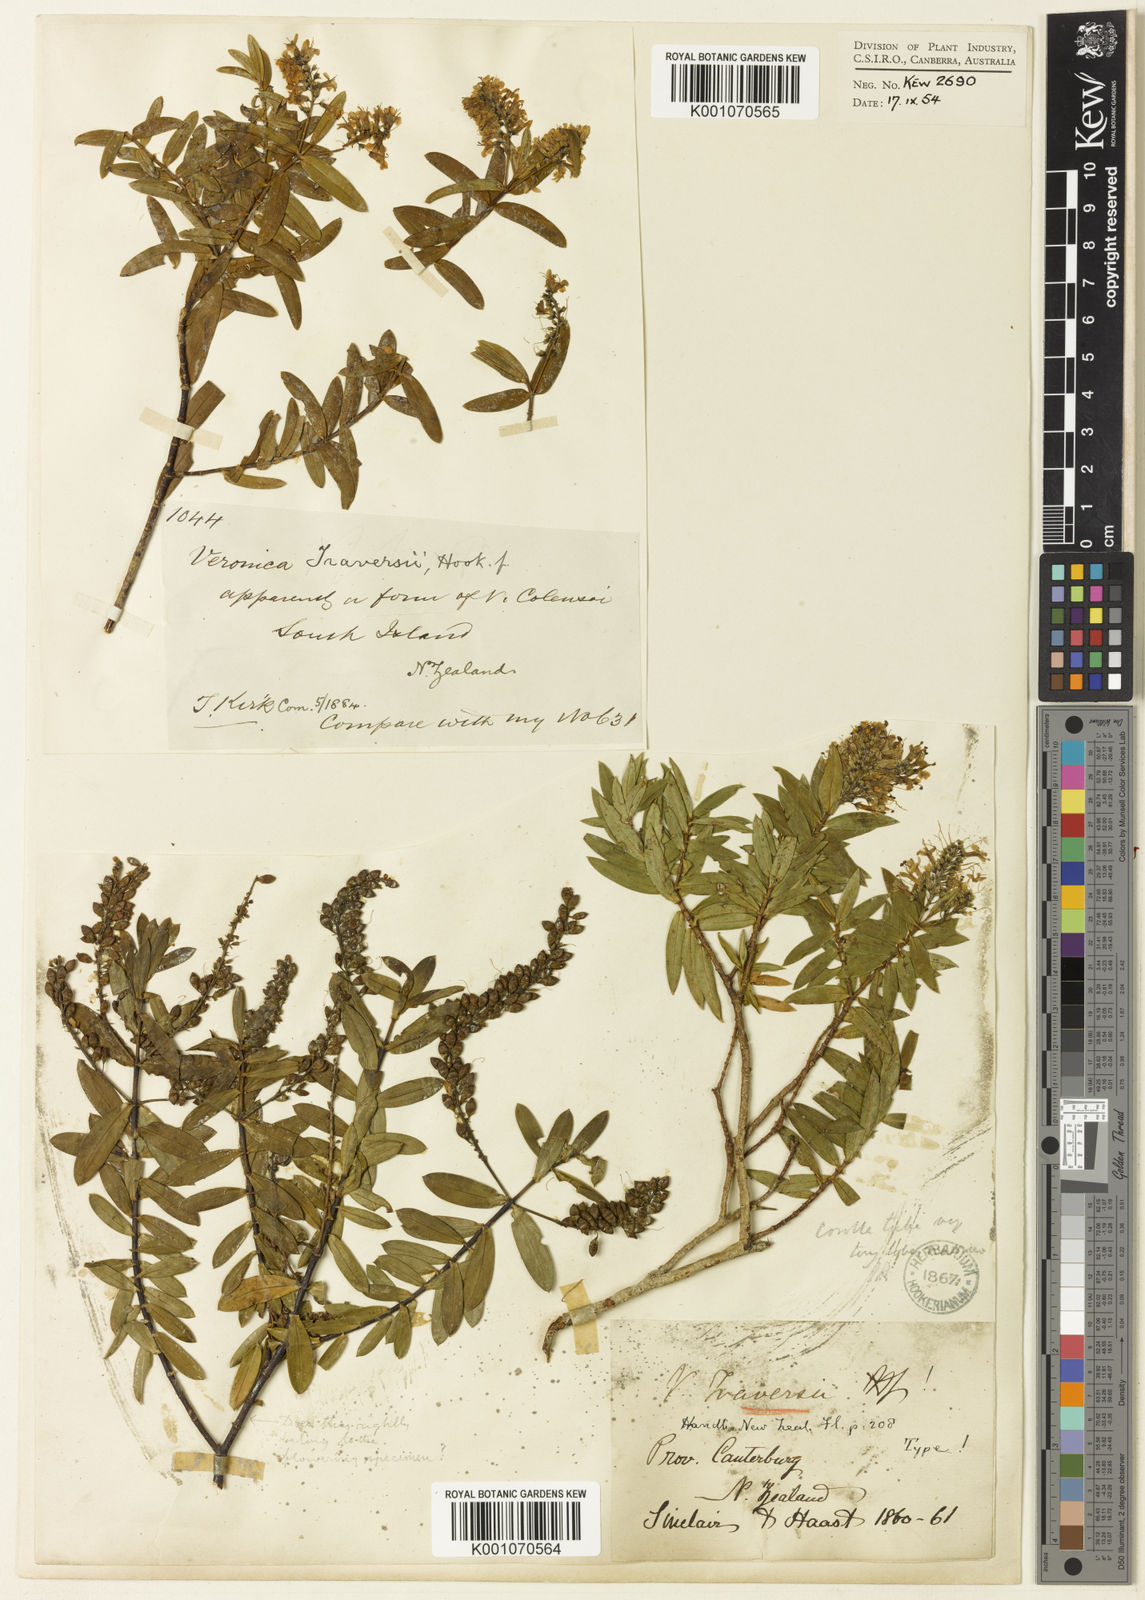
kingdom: Plantae
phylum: Tracheophyta
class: Magnoliopsida
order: Lamiales
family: Plantaginaceae
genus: Veronica
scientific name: Veronica traversii
